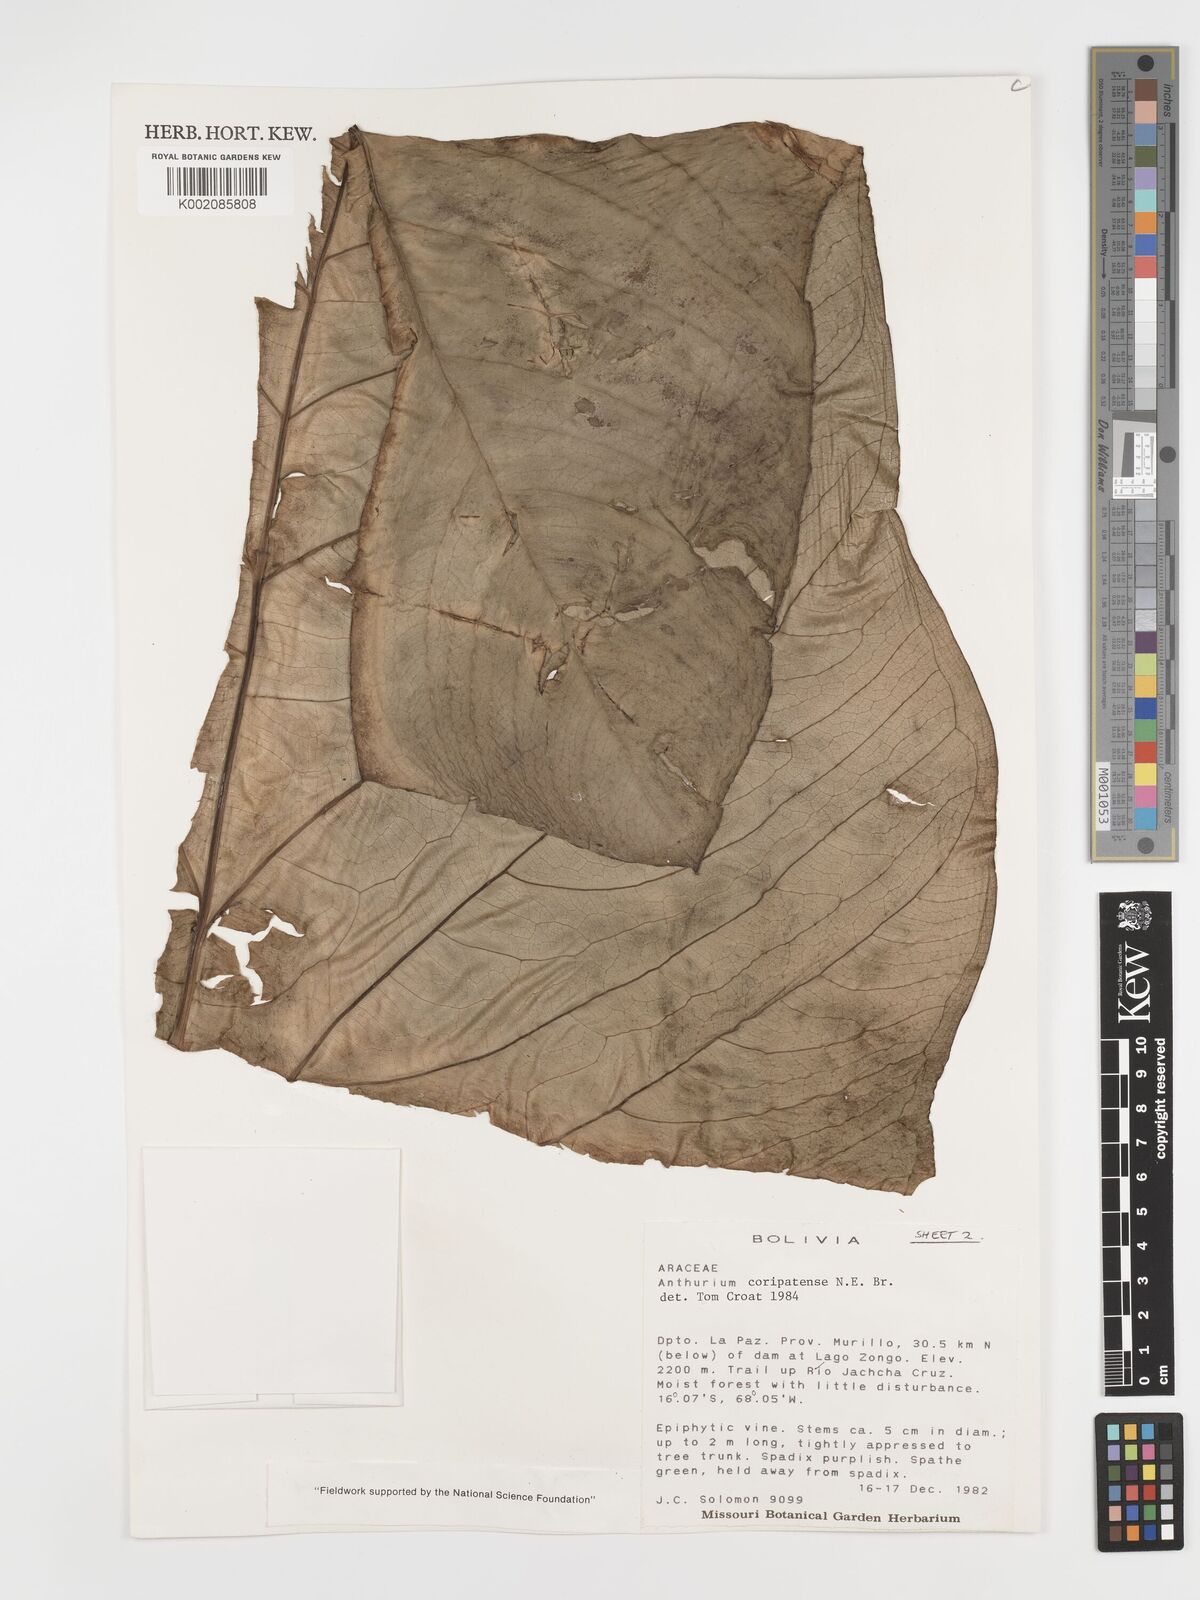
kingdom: Plantae
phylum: Tracheophyta
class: Liliopsida
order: Alismatales
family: Araceae
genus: Anthurium
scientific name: Anthurium coripatense
